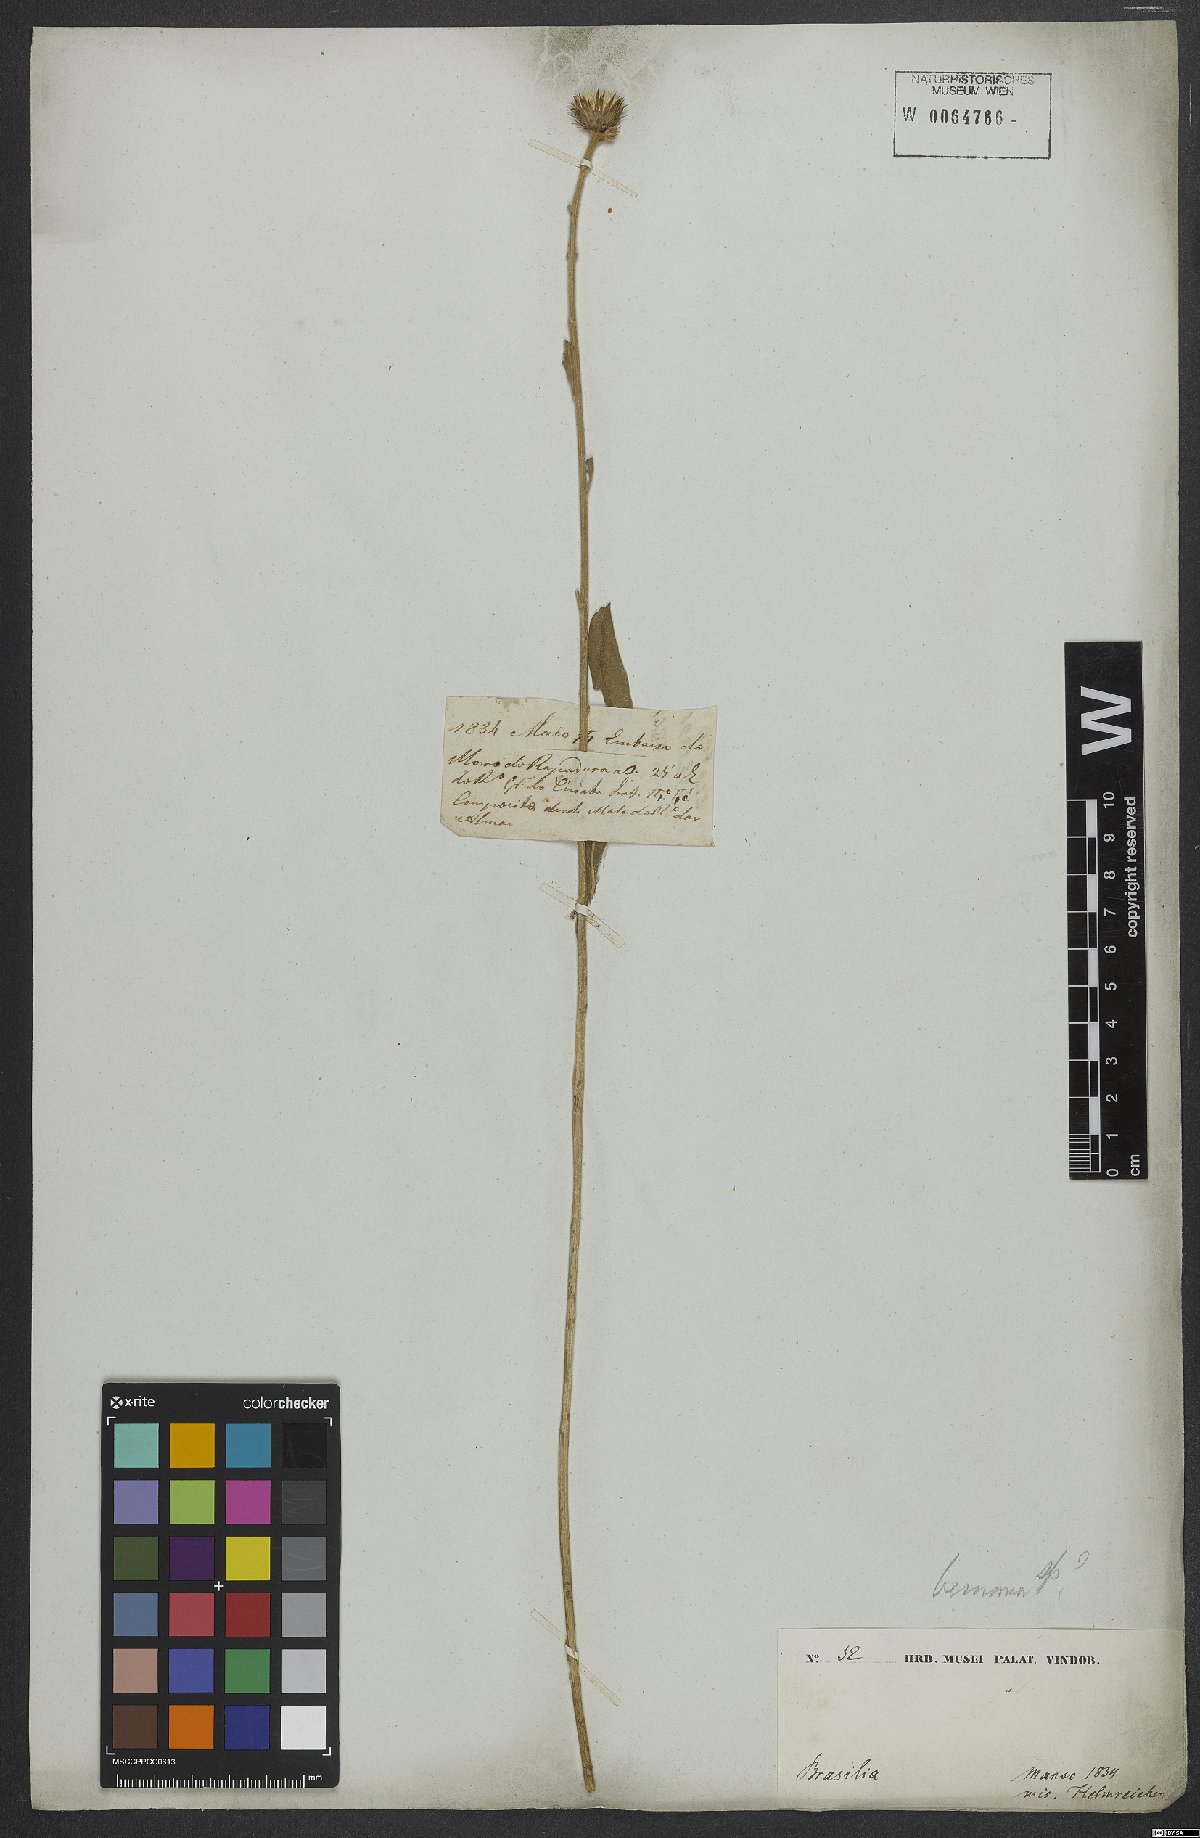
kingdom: Plantae
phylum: Tracheophyta
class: Magnoliopsida
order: Asterales
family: Asteraceae
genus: Vernonia
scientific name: Vernonia
